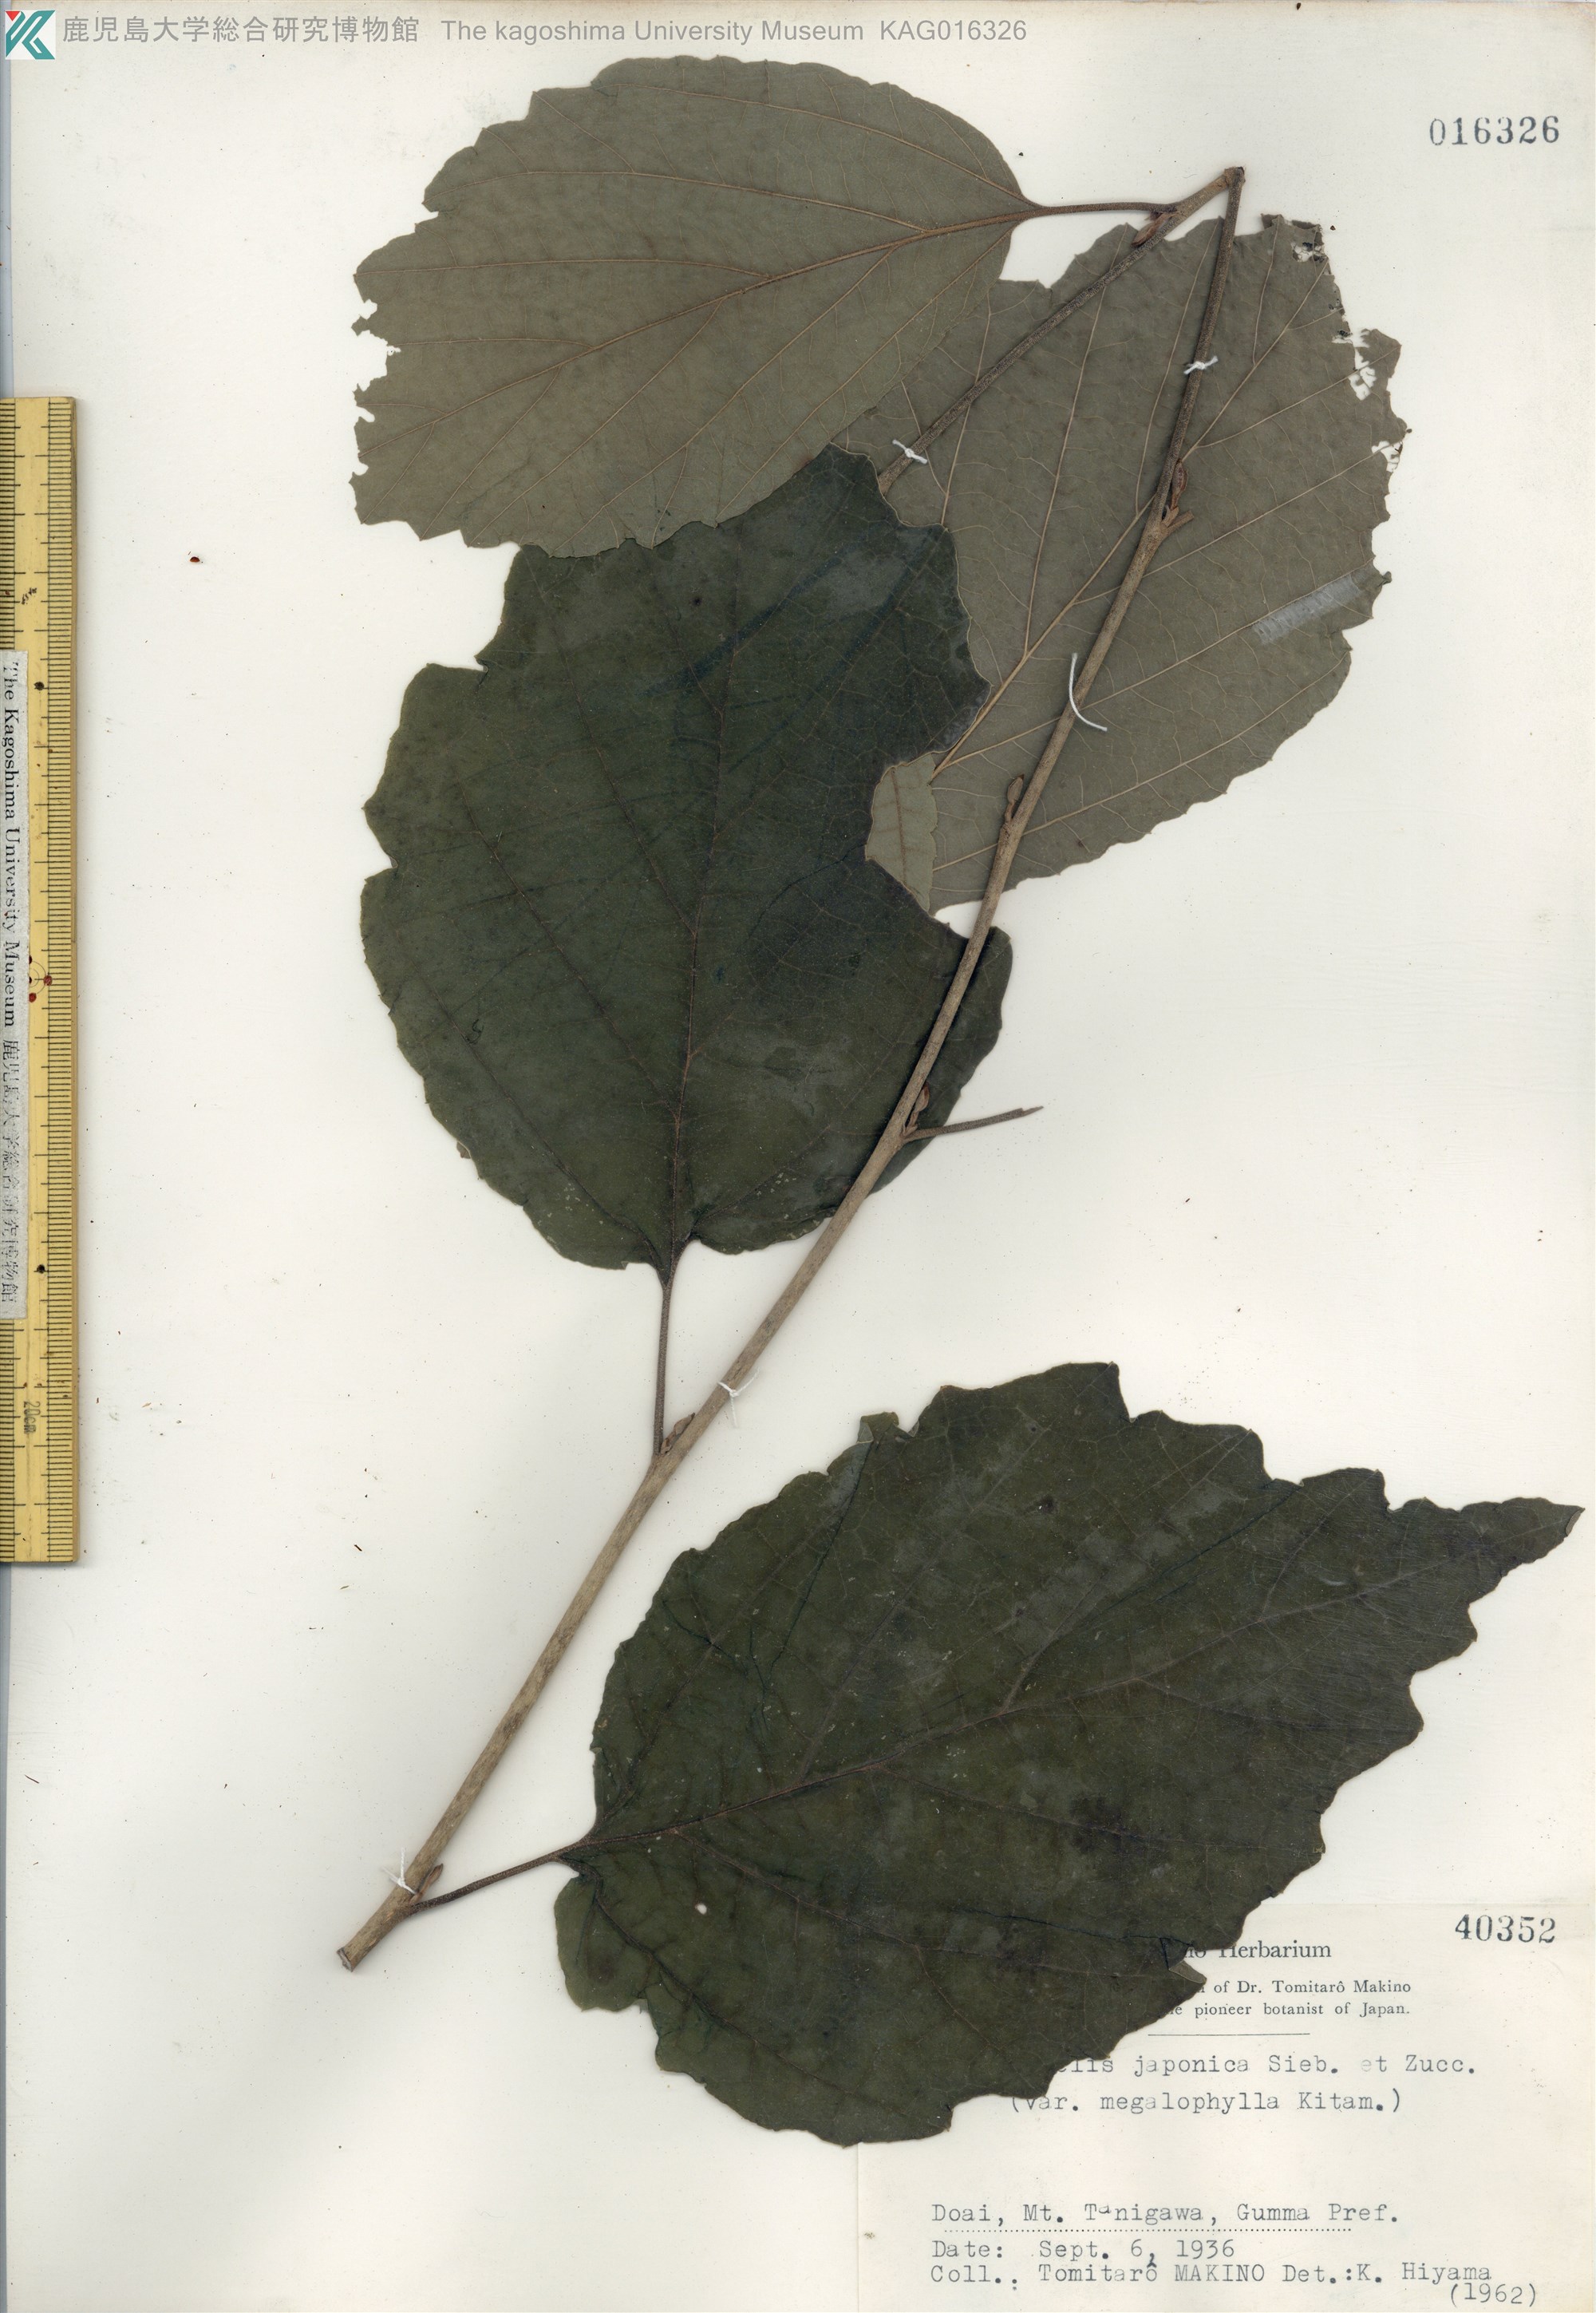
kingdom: Plantae
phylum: Tracheophyta
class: Magnoliopsida
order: Saxifragales
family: Hamamelidaceae
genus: Hamamelis
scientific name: Hamamelis japonica
